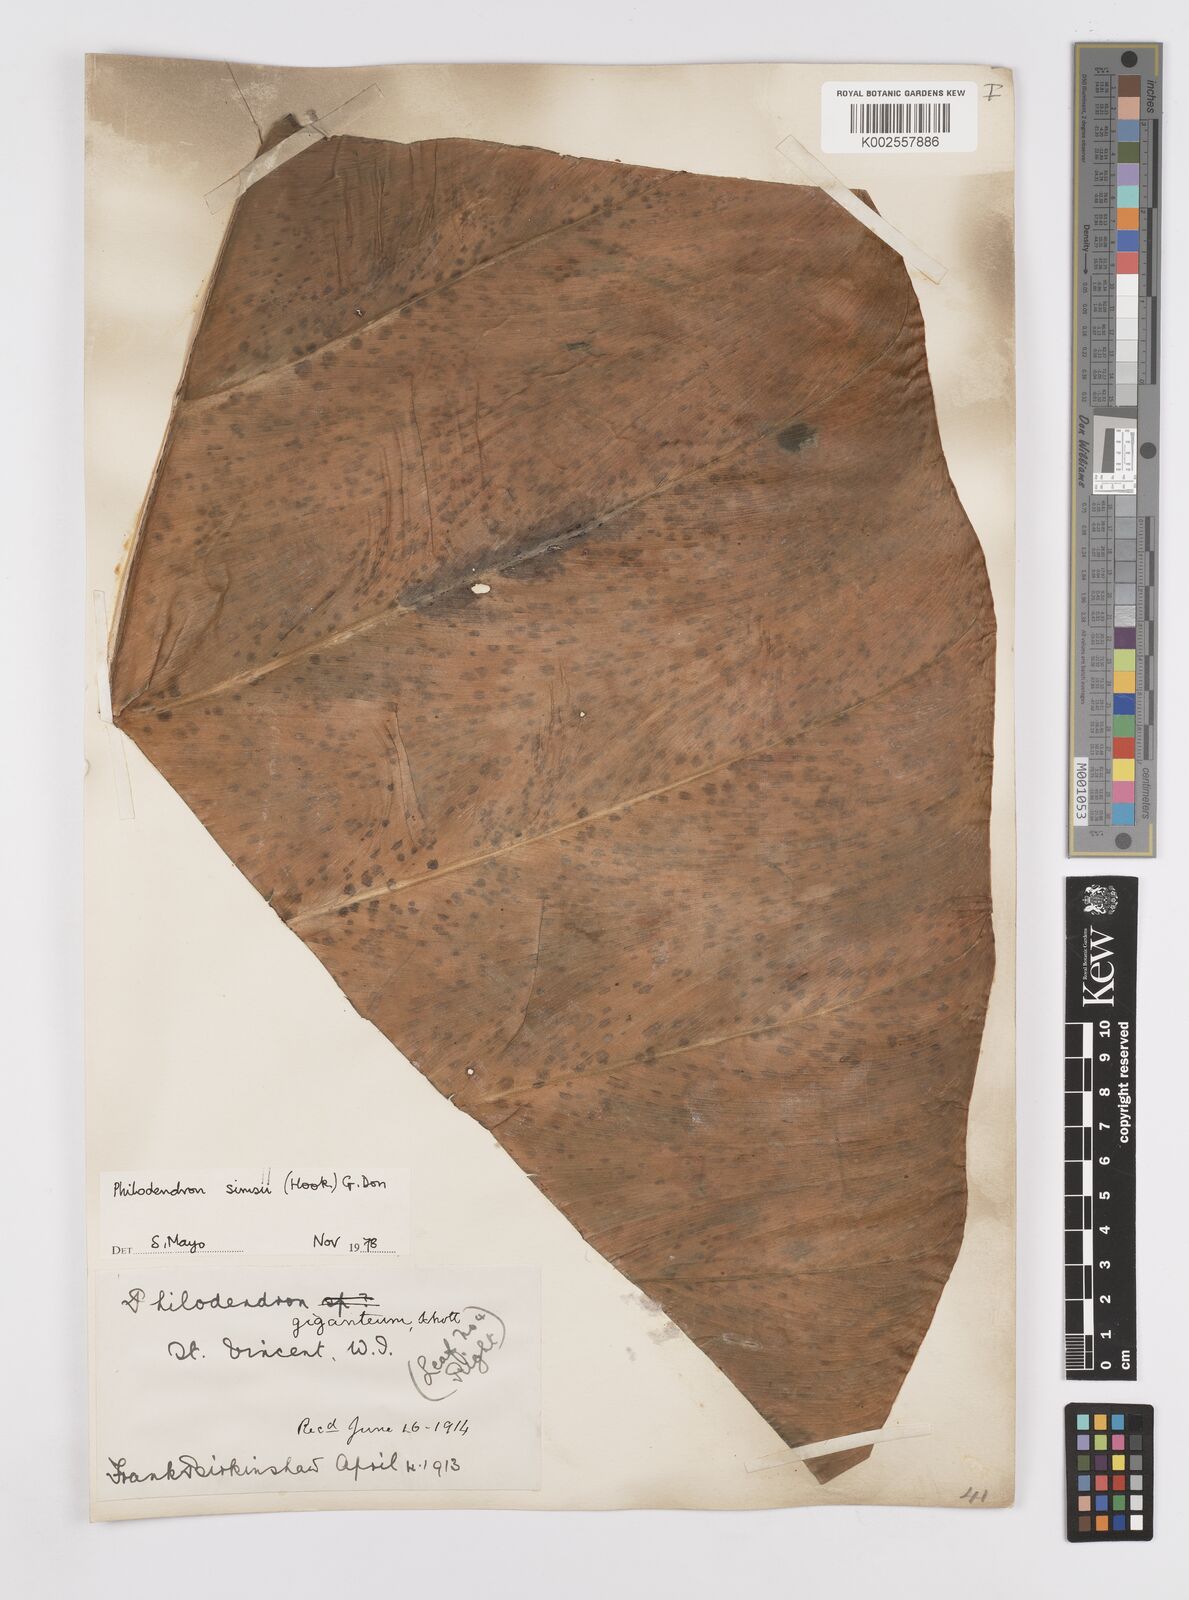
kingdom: Plantae
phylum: Tracheophyta
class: Liliopsida
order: Alismatales
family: Araceae
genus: Philodendron
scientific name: Philodendron
